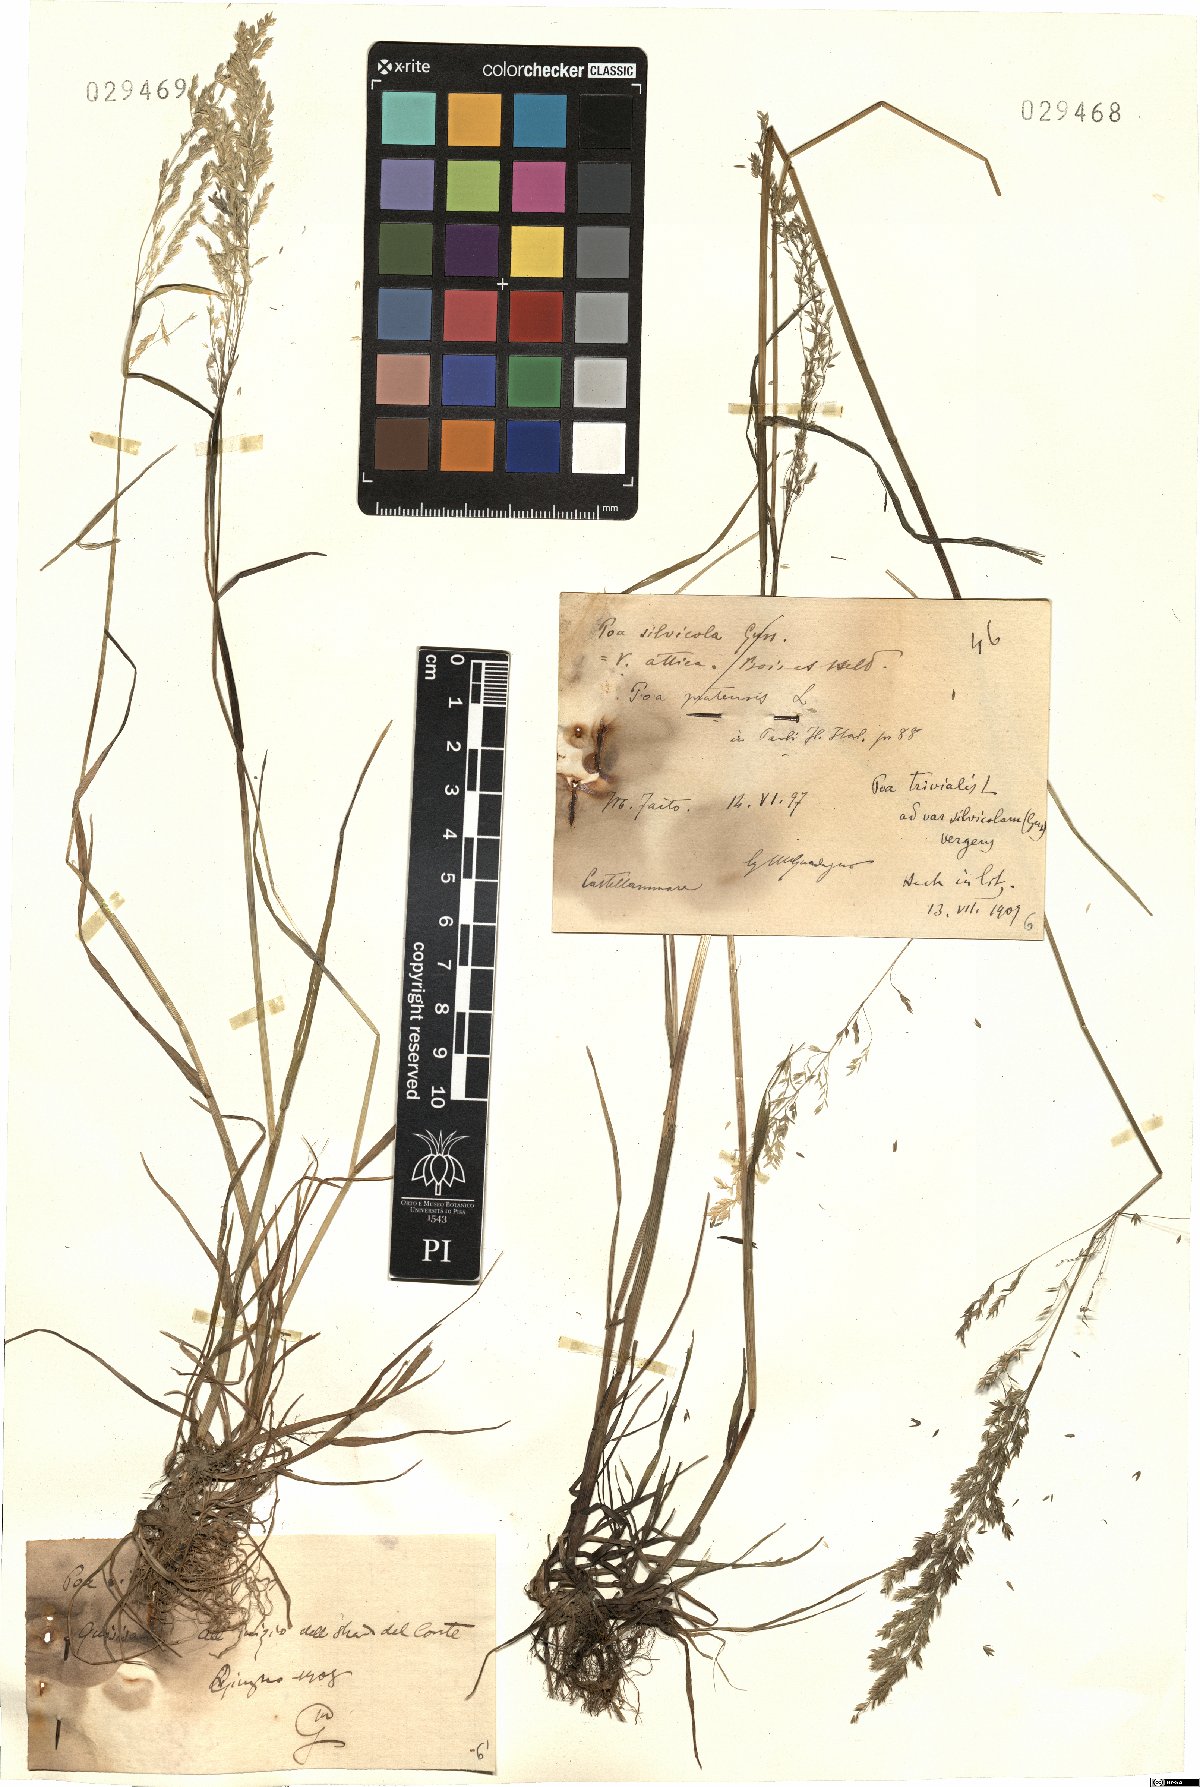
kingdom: Plantae
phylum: Tracheophyta
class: Liliopsida
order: Poales
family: Poaceae
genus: Poa
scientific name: Poa trivialis
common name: Rough bluegrass
